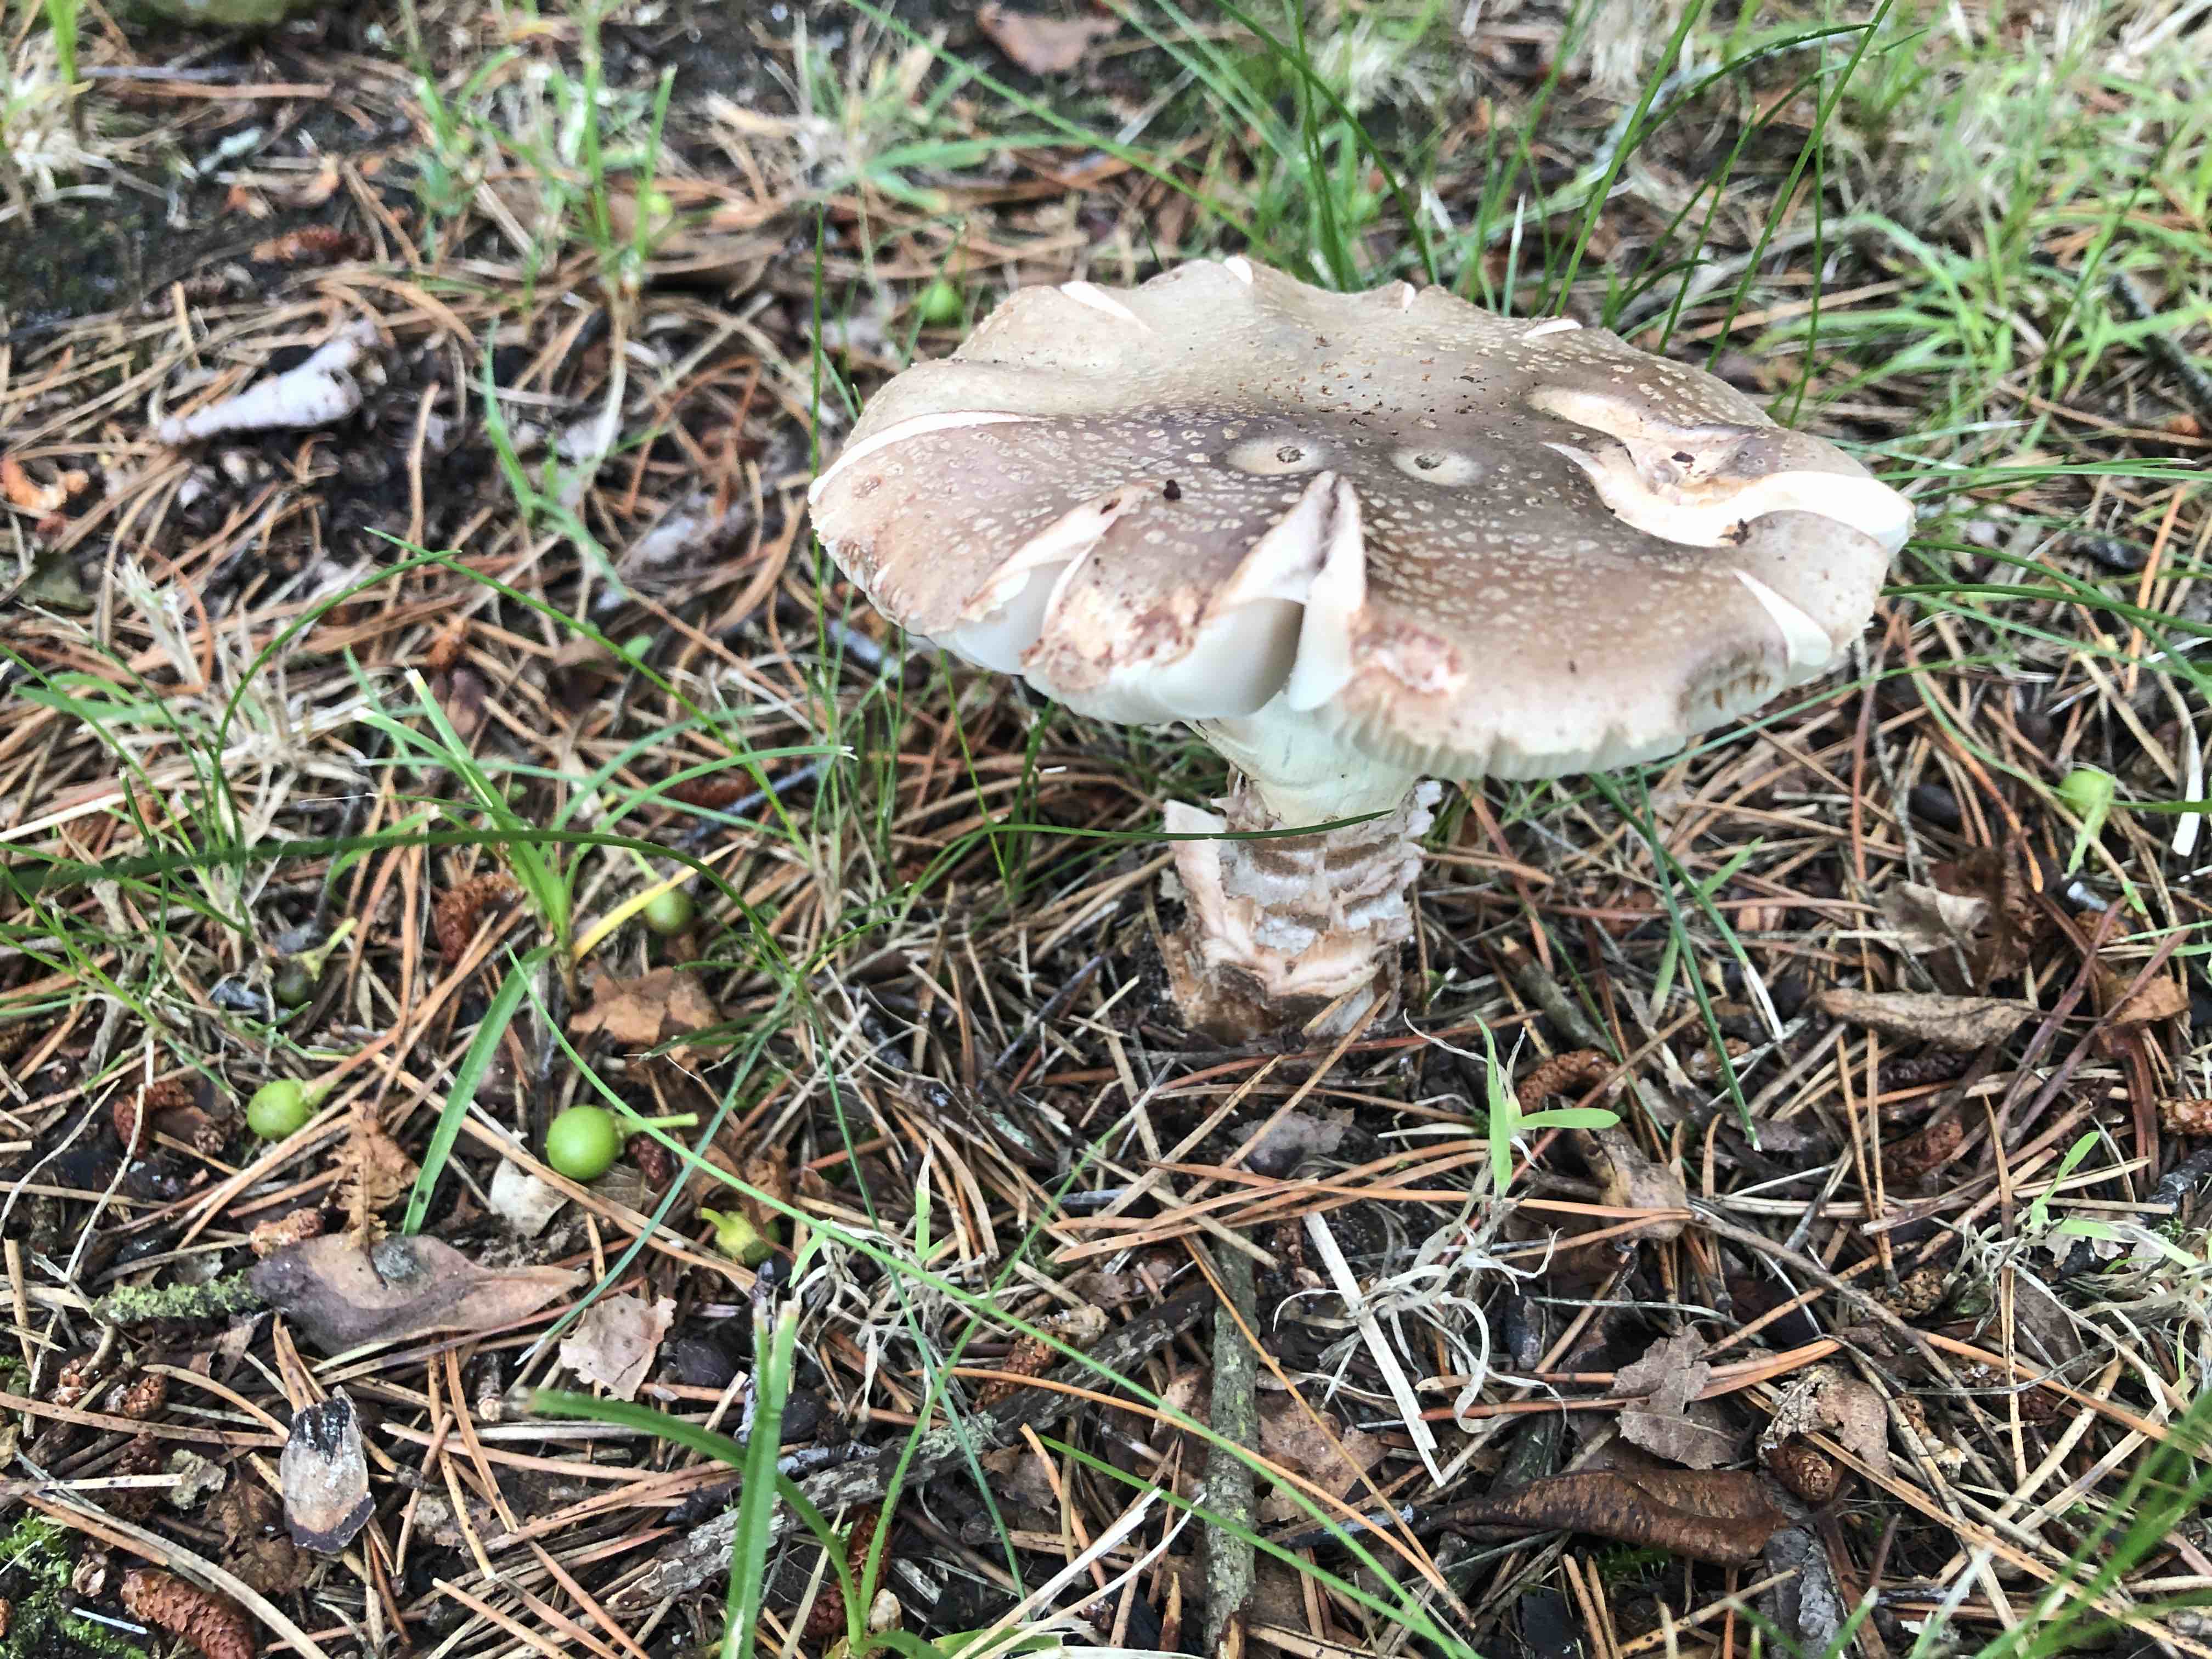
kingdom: Fungi
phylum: Basidiomycota
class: Agaricomycetes
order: Agaricales
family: Amanitaceae
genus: Amanita
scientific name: Amanita rubescens
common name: rødmende fluesvamp
